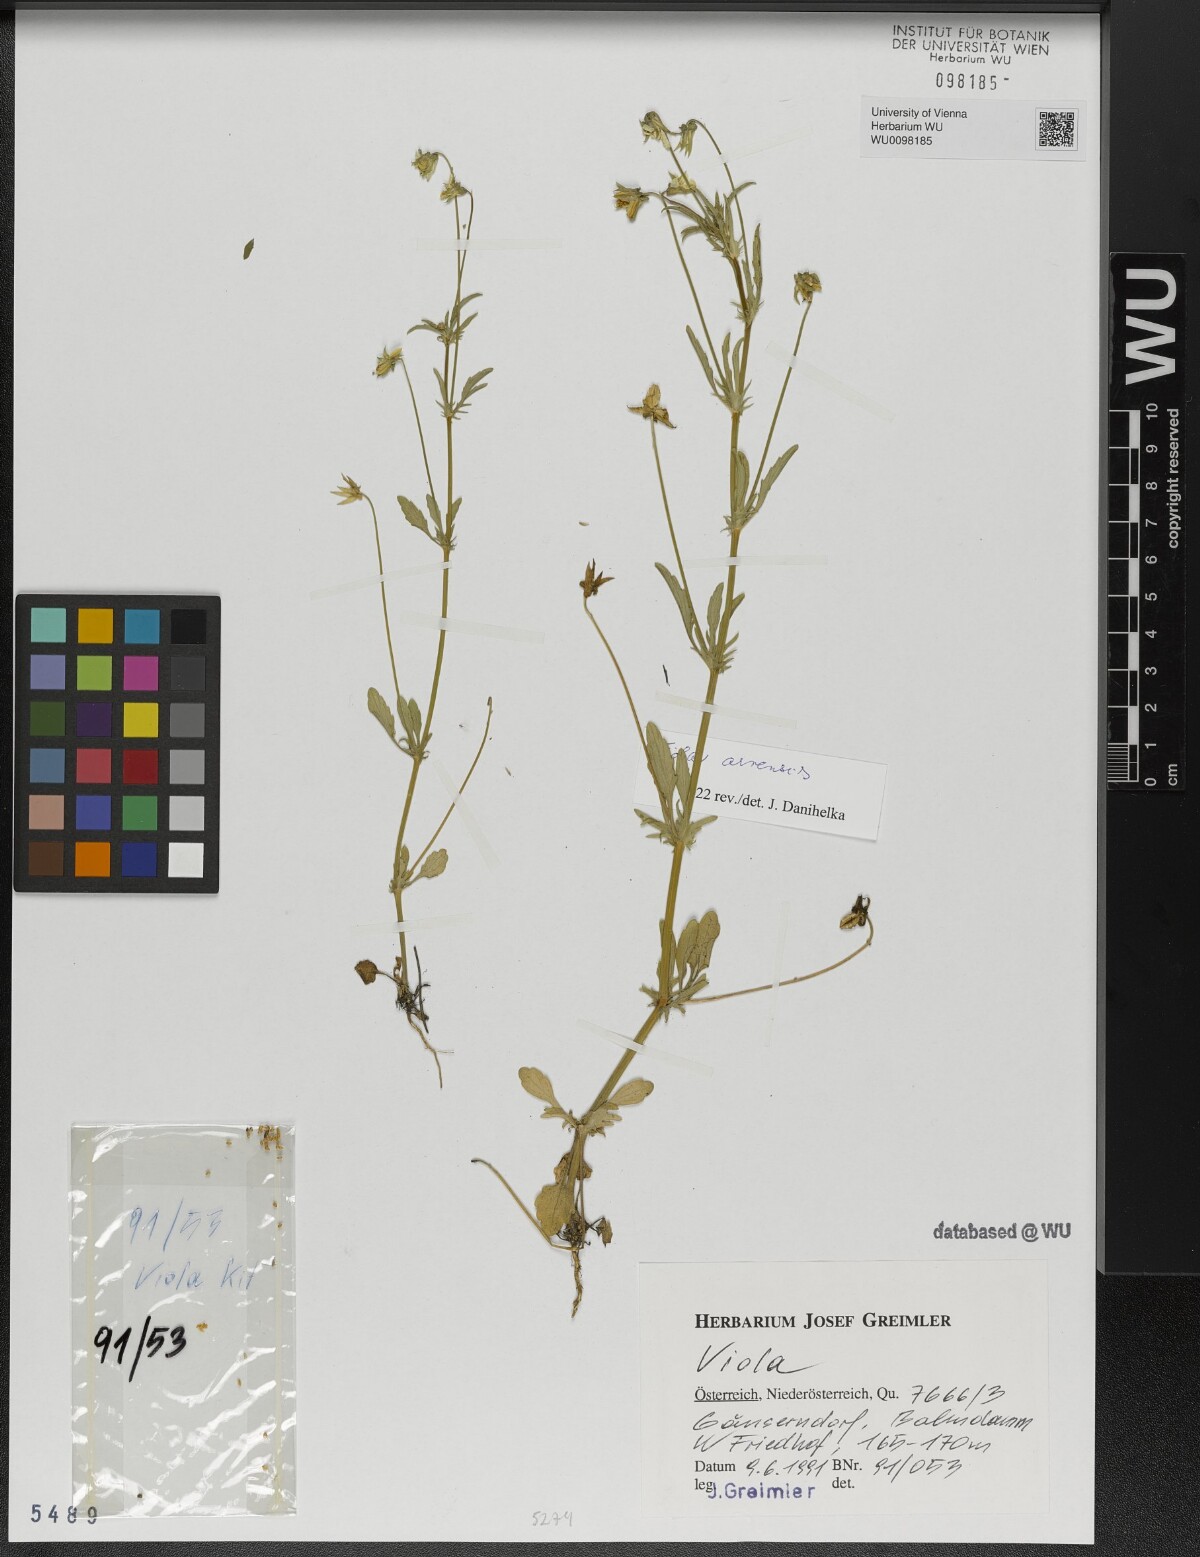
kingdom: Plantae
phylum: Tracheophyta
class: Magnoliopsida
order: Malpighiales
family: Violaceae
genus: Viola
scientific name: Viola arvensis
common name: Field pansy
